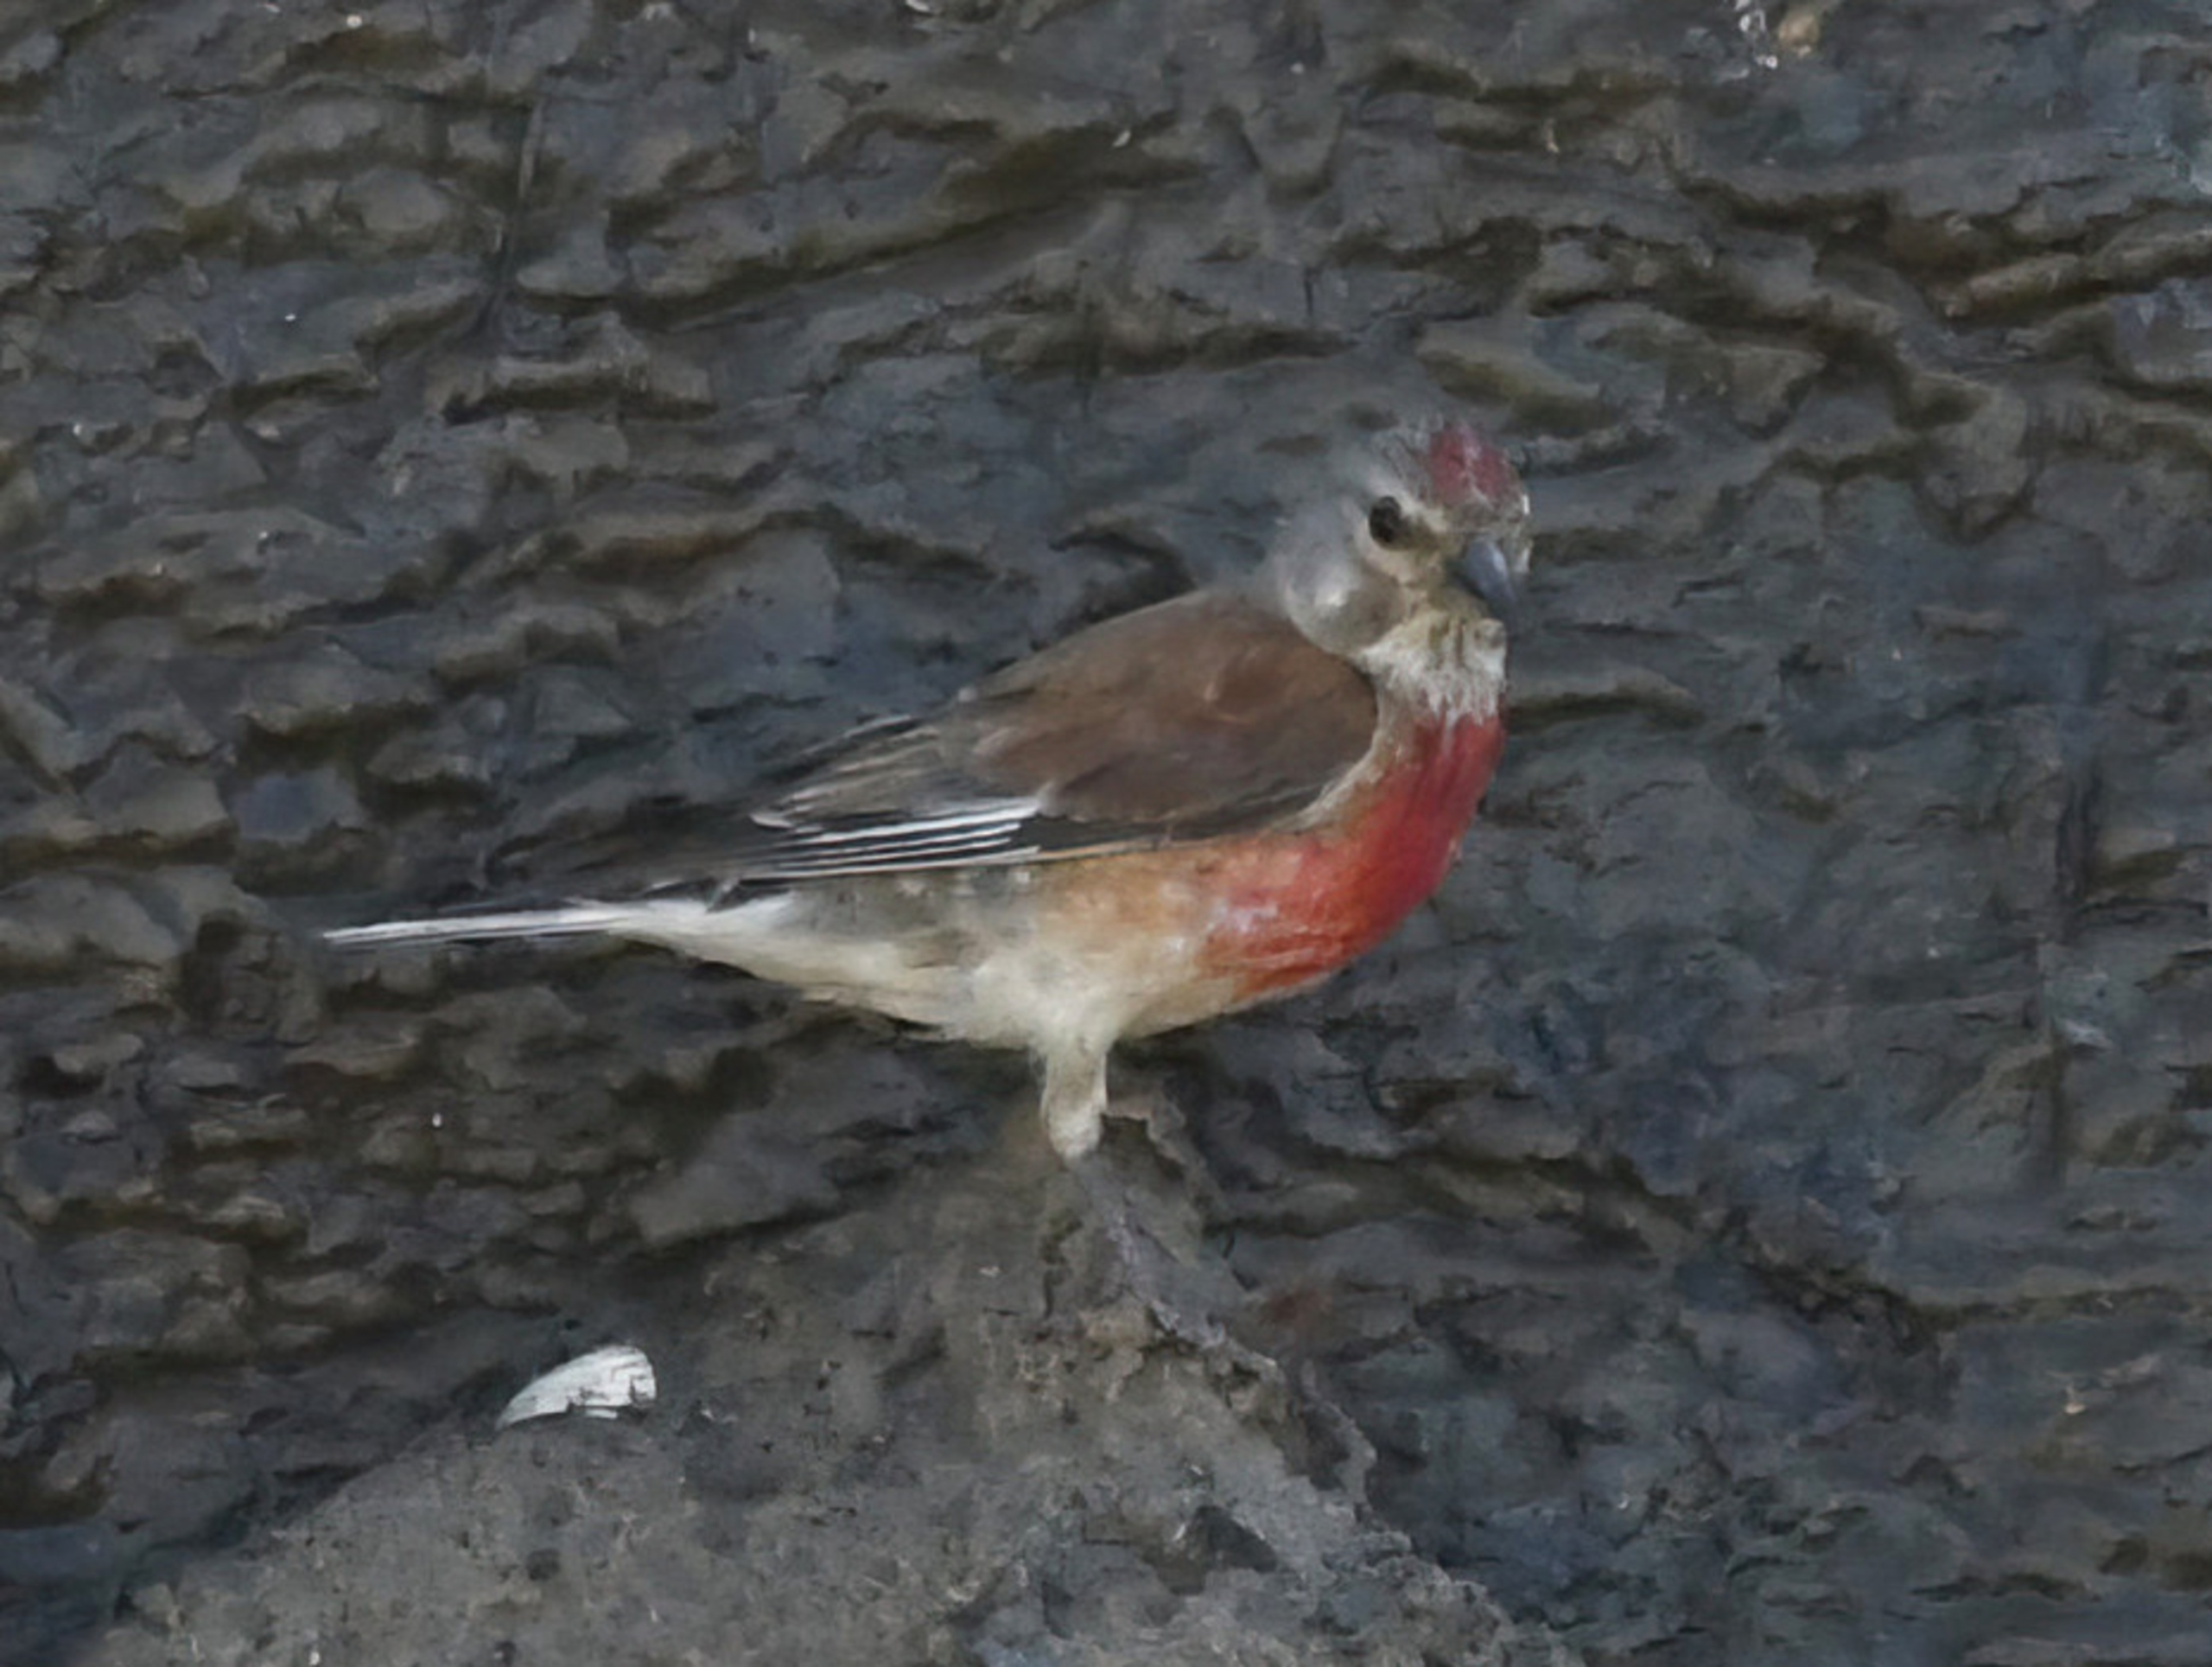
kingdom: Animalia
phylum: Chordata
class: Aves
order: Passeriformes
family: Fringillidae
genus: Linaria
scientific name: Linaria cannabina
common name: Tornirisk
